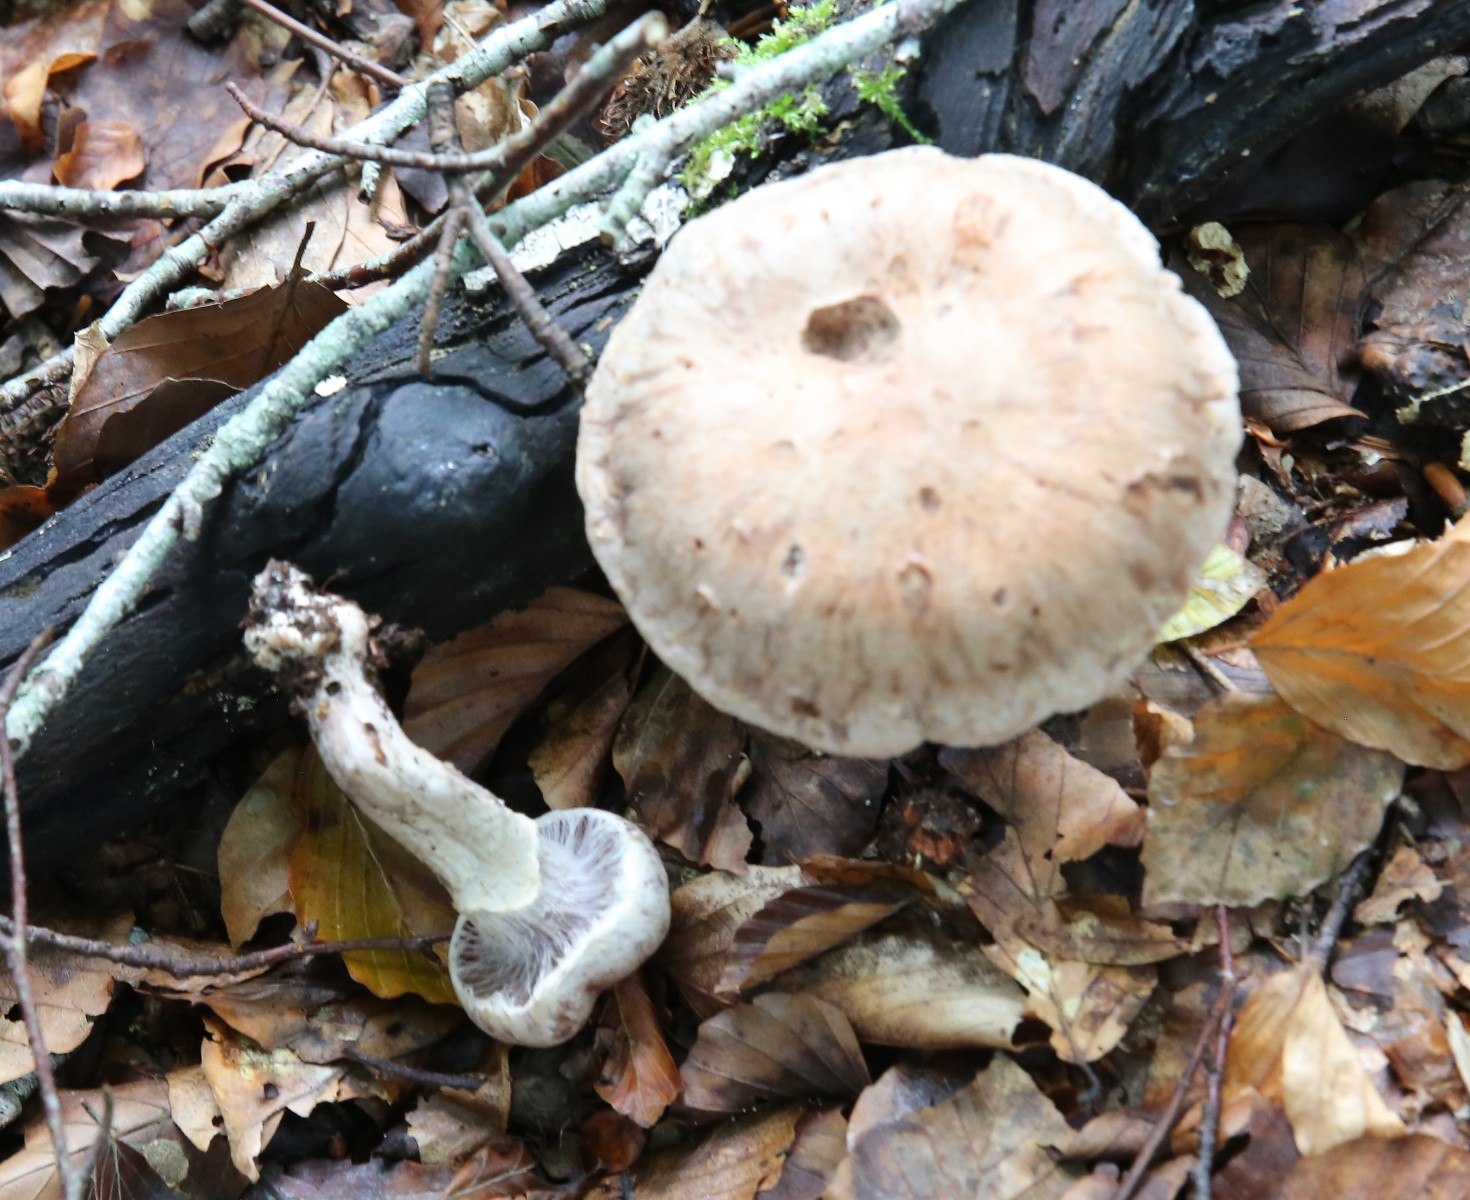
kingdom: Fungi
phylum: Basidiomycota
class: Agaricomycetes
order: Agaricales
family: Cortinariaceae
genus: Cortinarius
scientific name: Cortinarius
